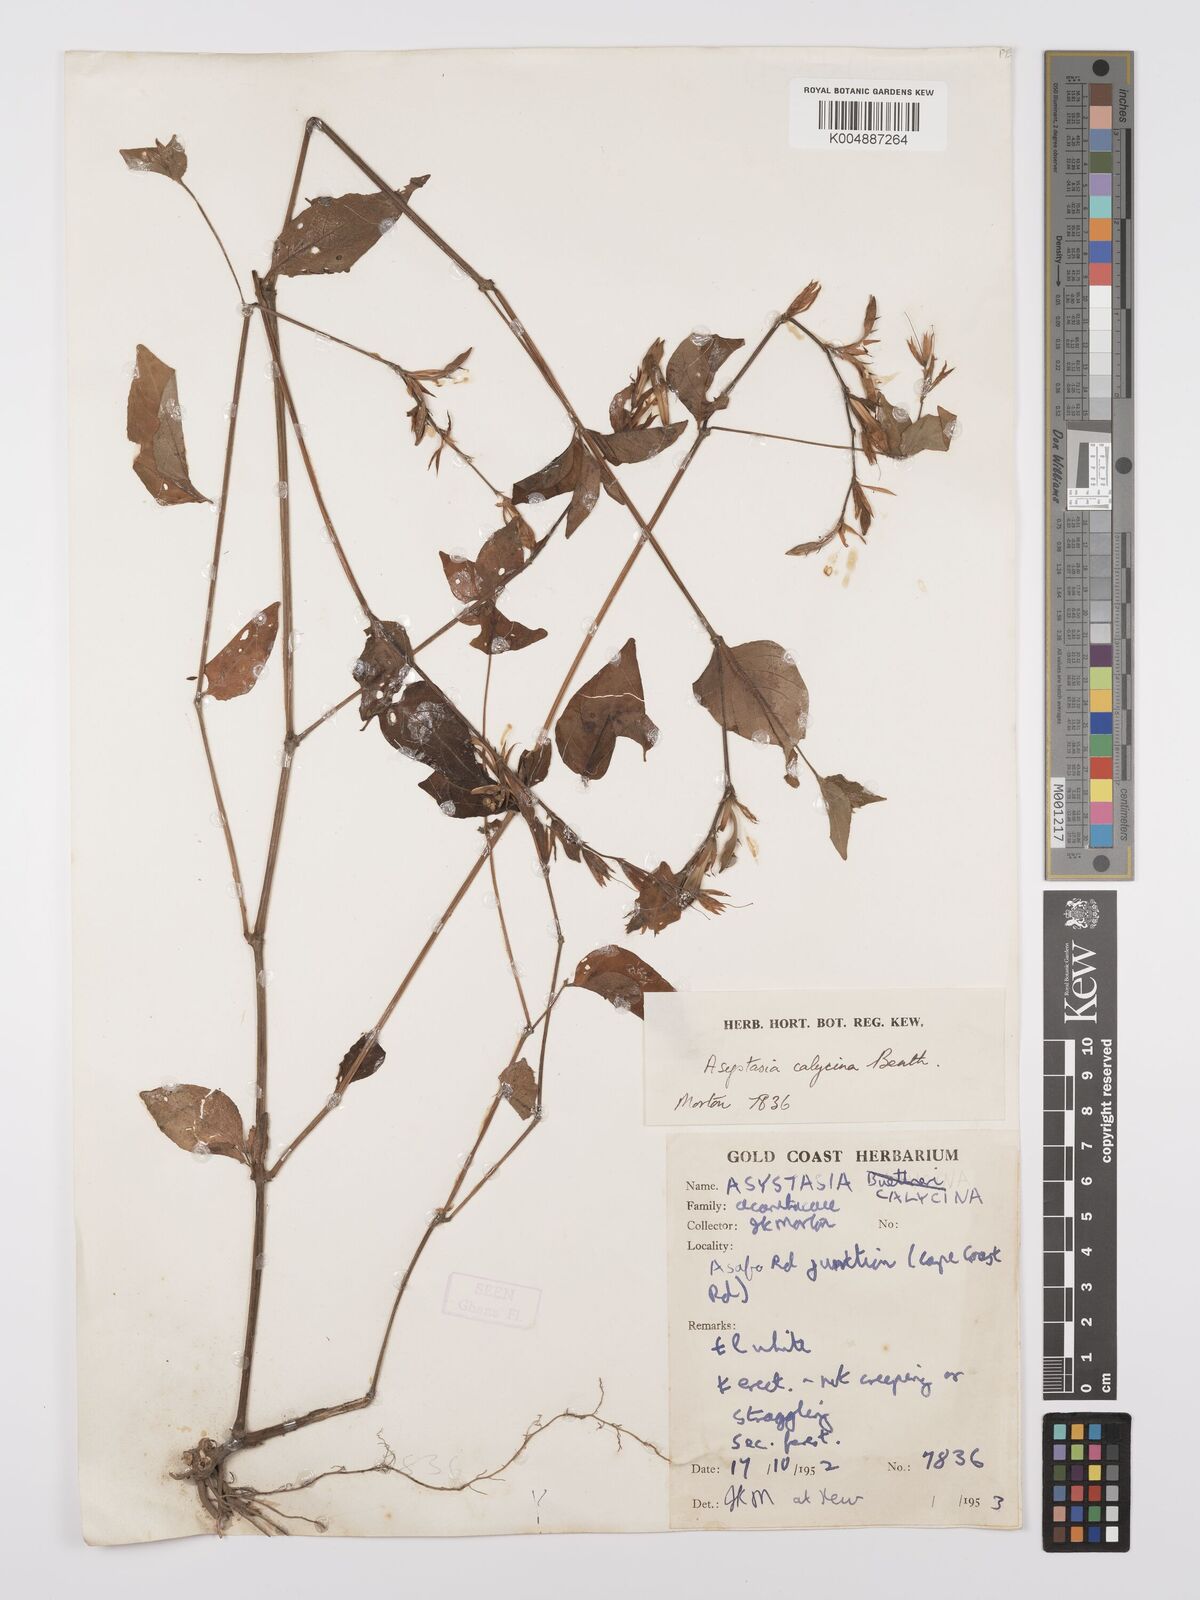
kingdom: Plantae
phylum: Tracheophyta
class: Magnoliopsida
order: Lamiales
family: Acanthaceae
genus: Asystasia
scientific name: Asystasia
